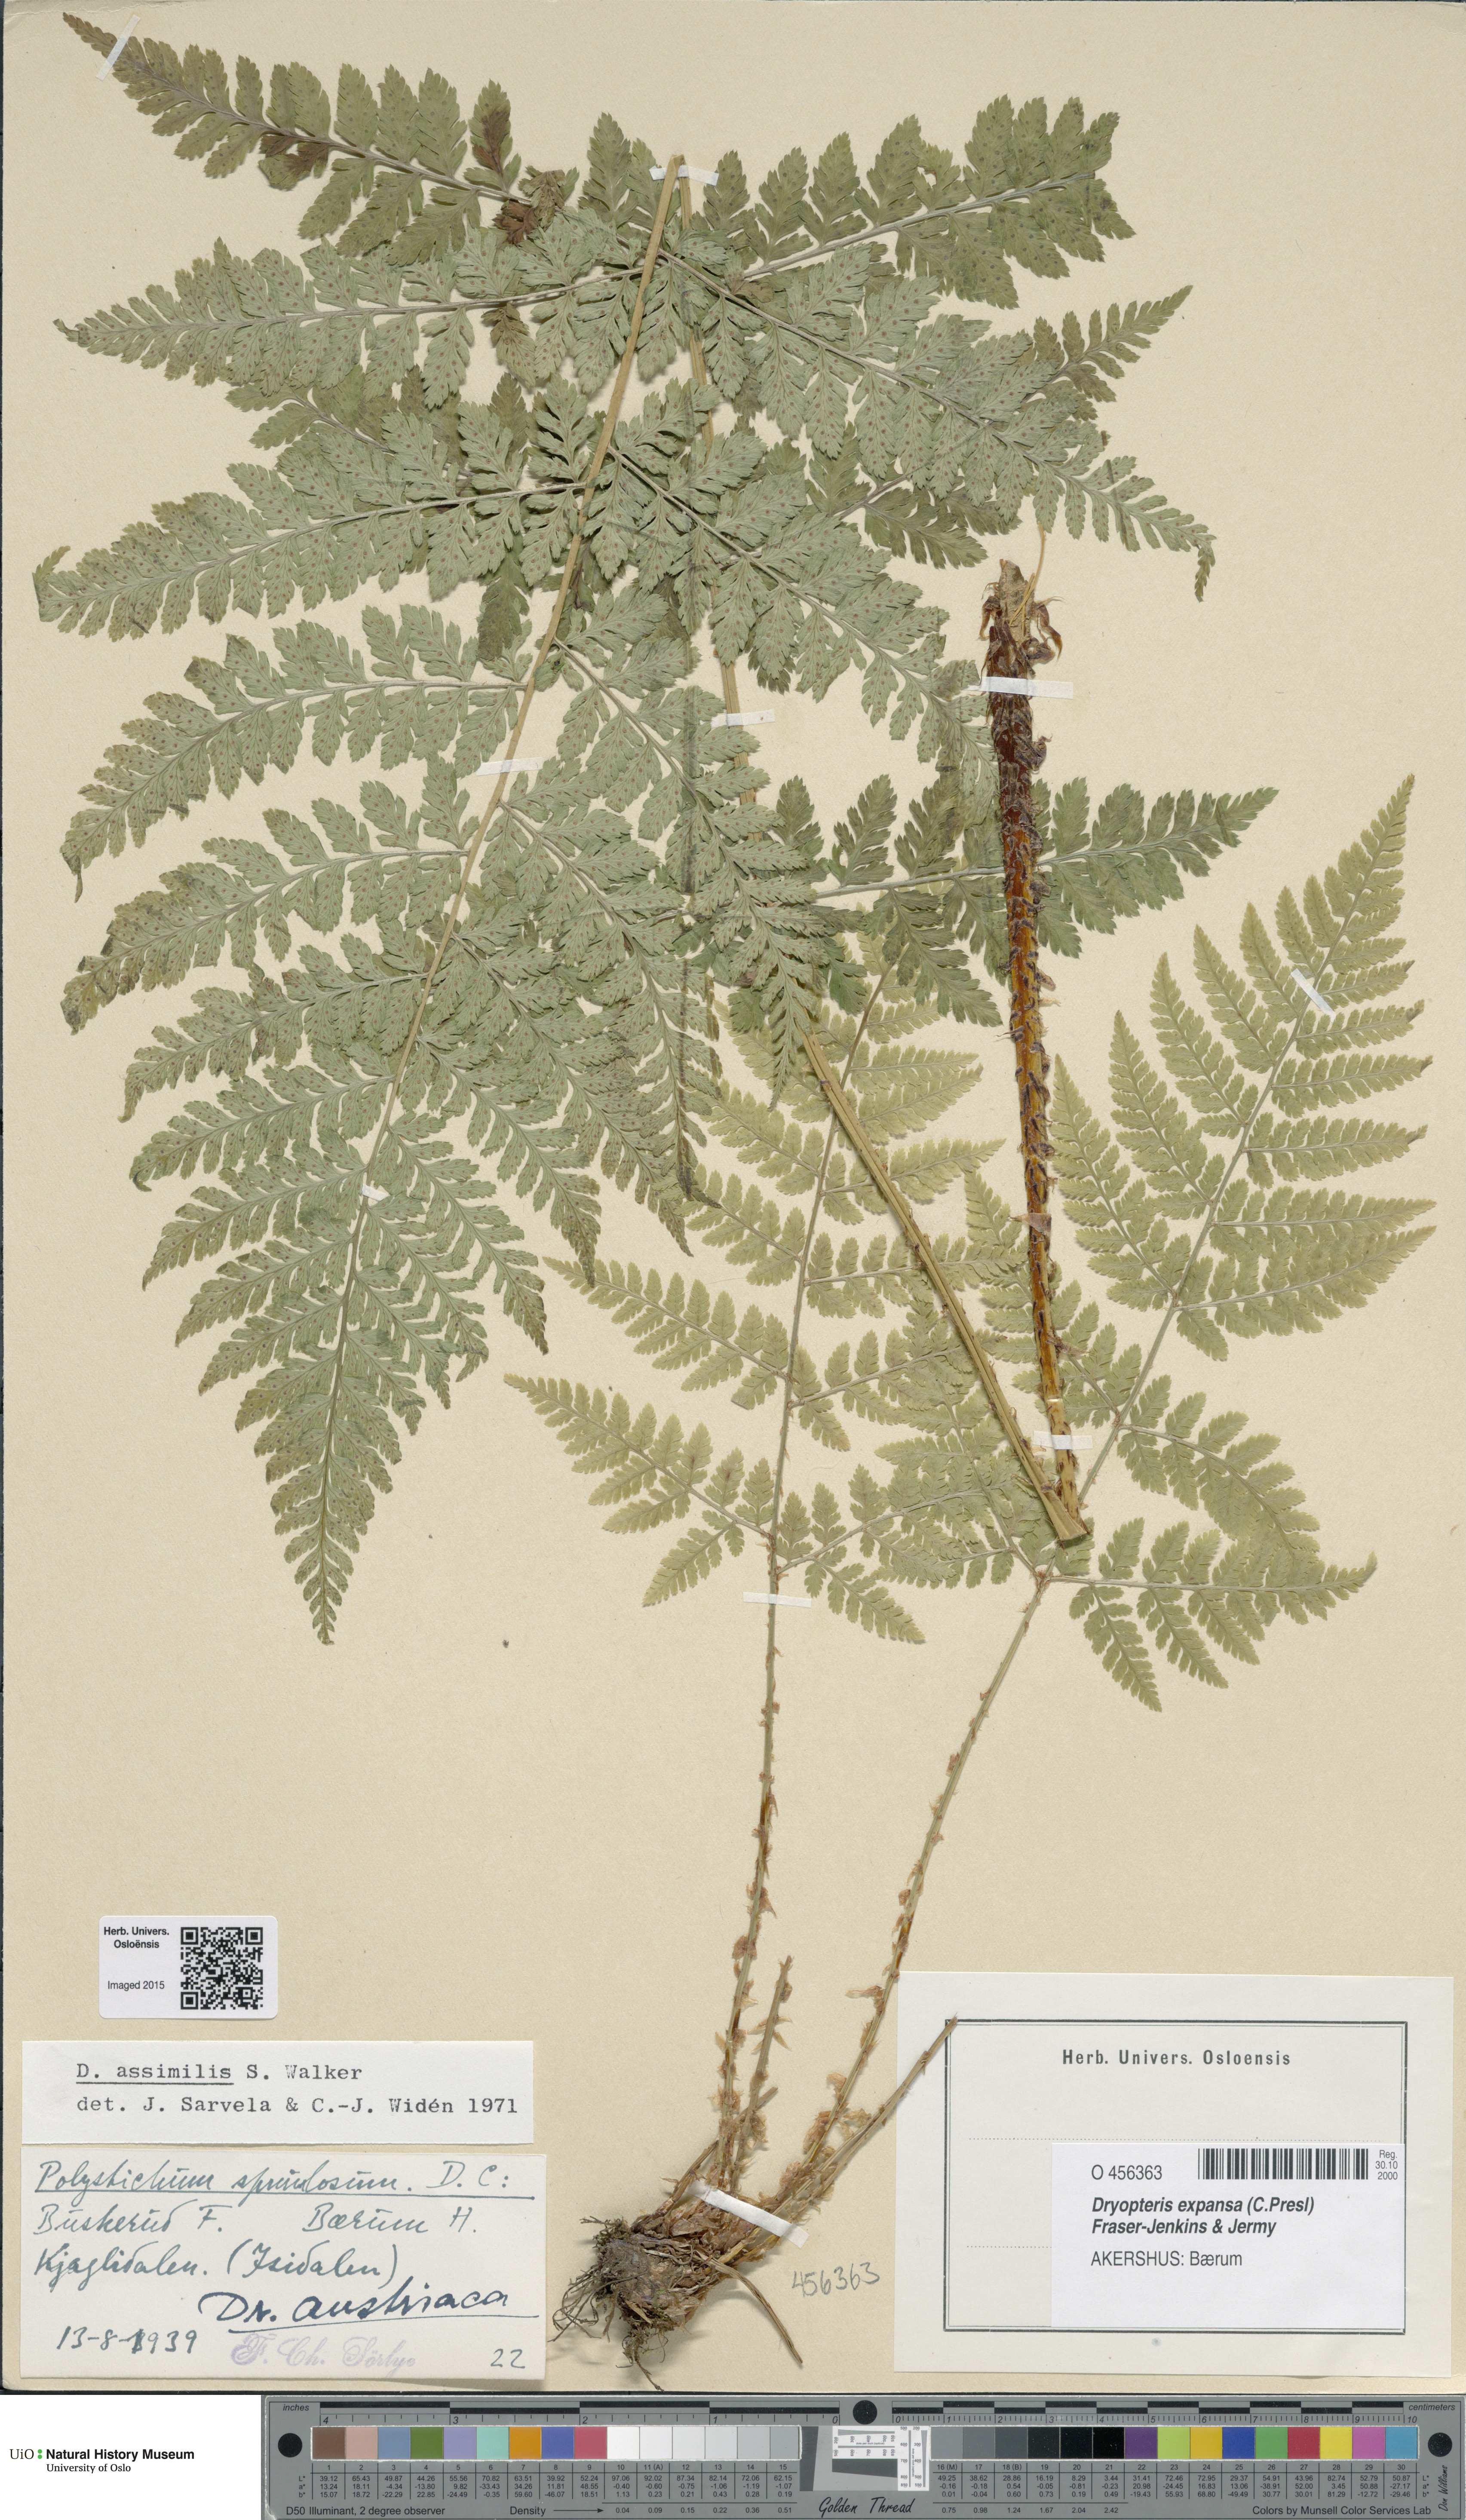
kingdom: Plantae
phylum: Tracheophyta
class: Polypodiopsida
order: Polypodiales
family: Dryopteridaceae
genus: Dryopteris
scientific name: Dryopteris expansa
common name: Northern buckler fern
